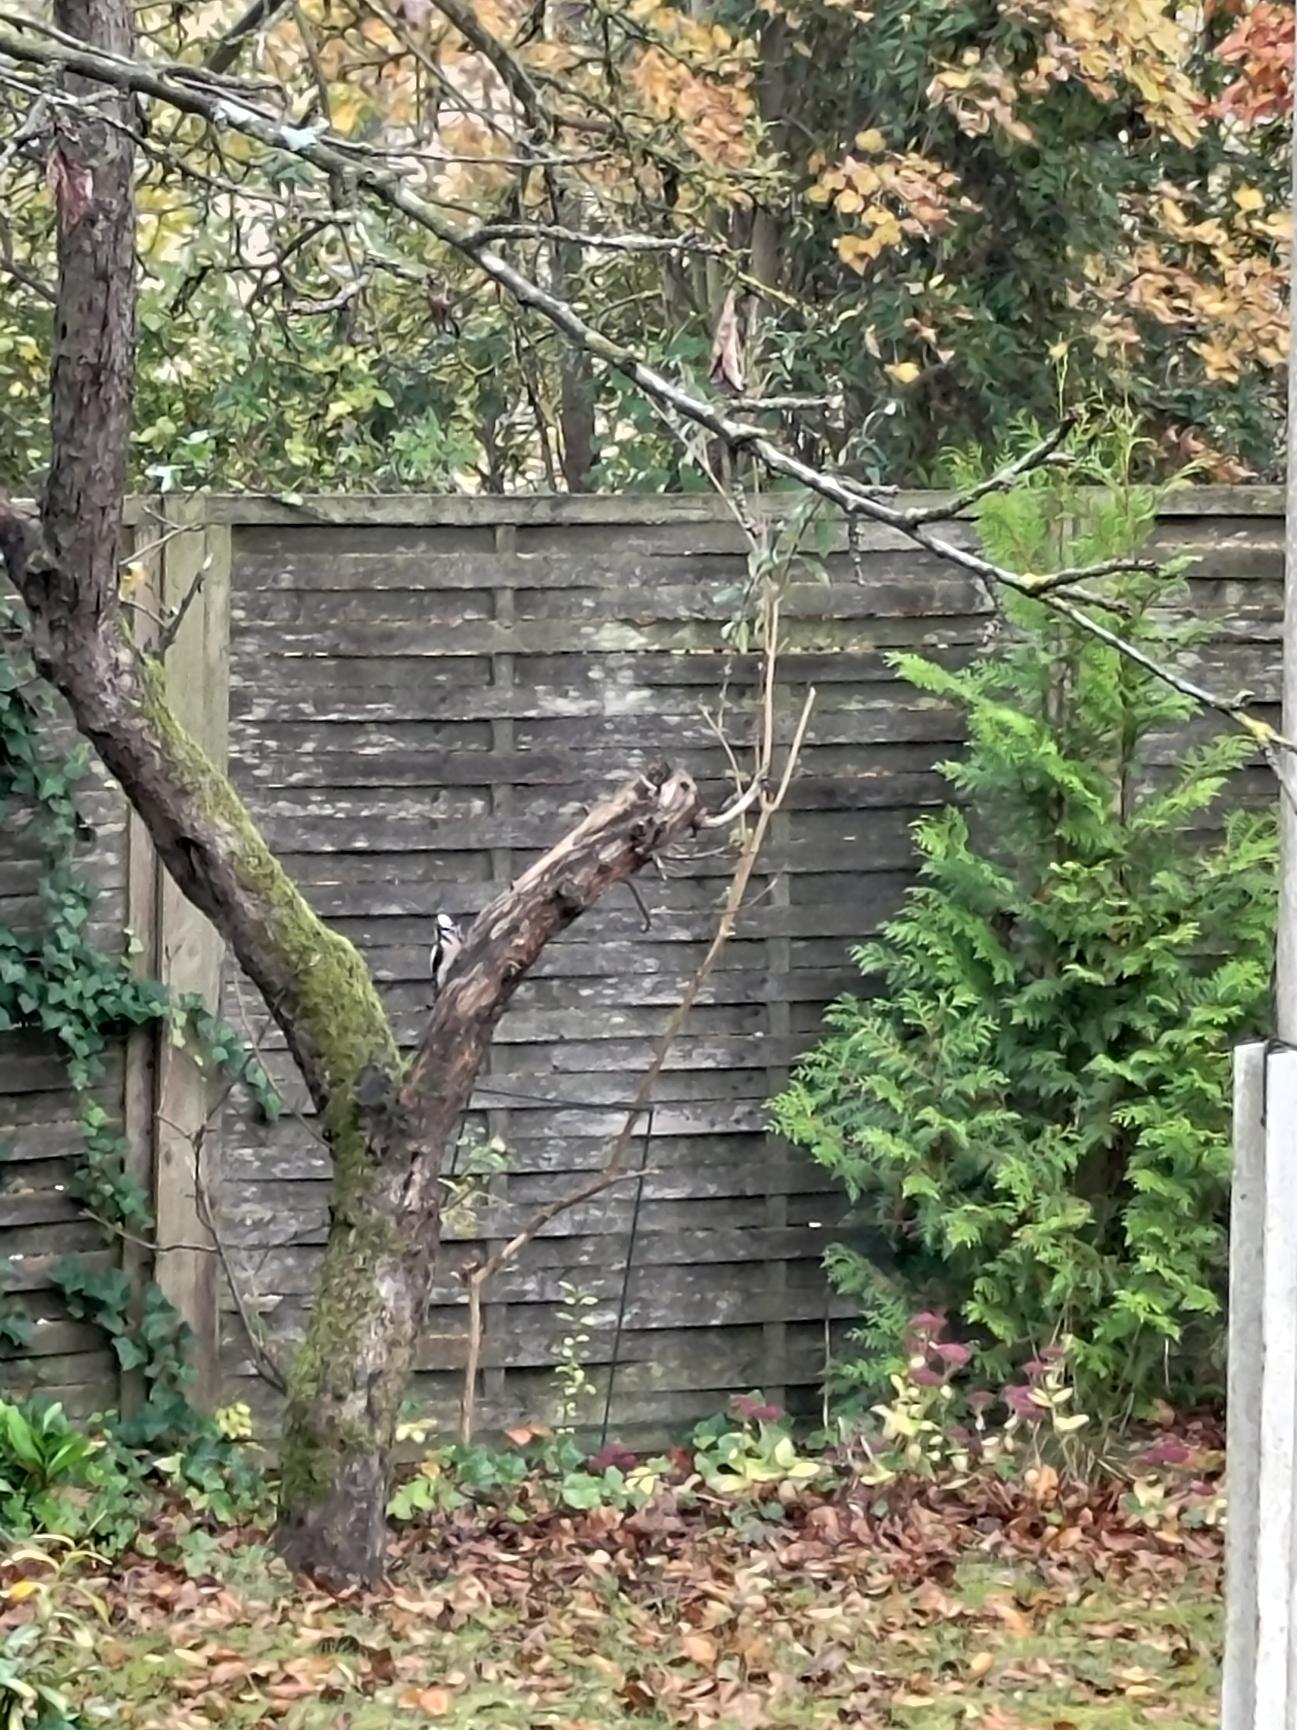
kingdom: Animalia
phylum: Chordata
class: Aves
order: Piciformes
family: Picidae
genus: Dendrocopos
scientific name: Dendrocopos major
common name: Stor flagspætte
